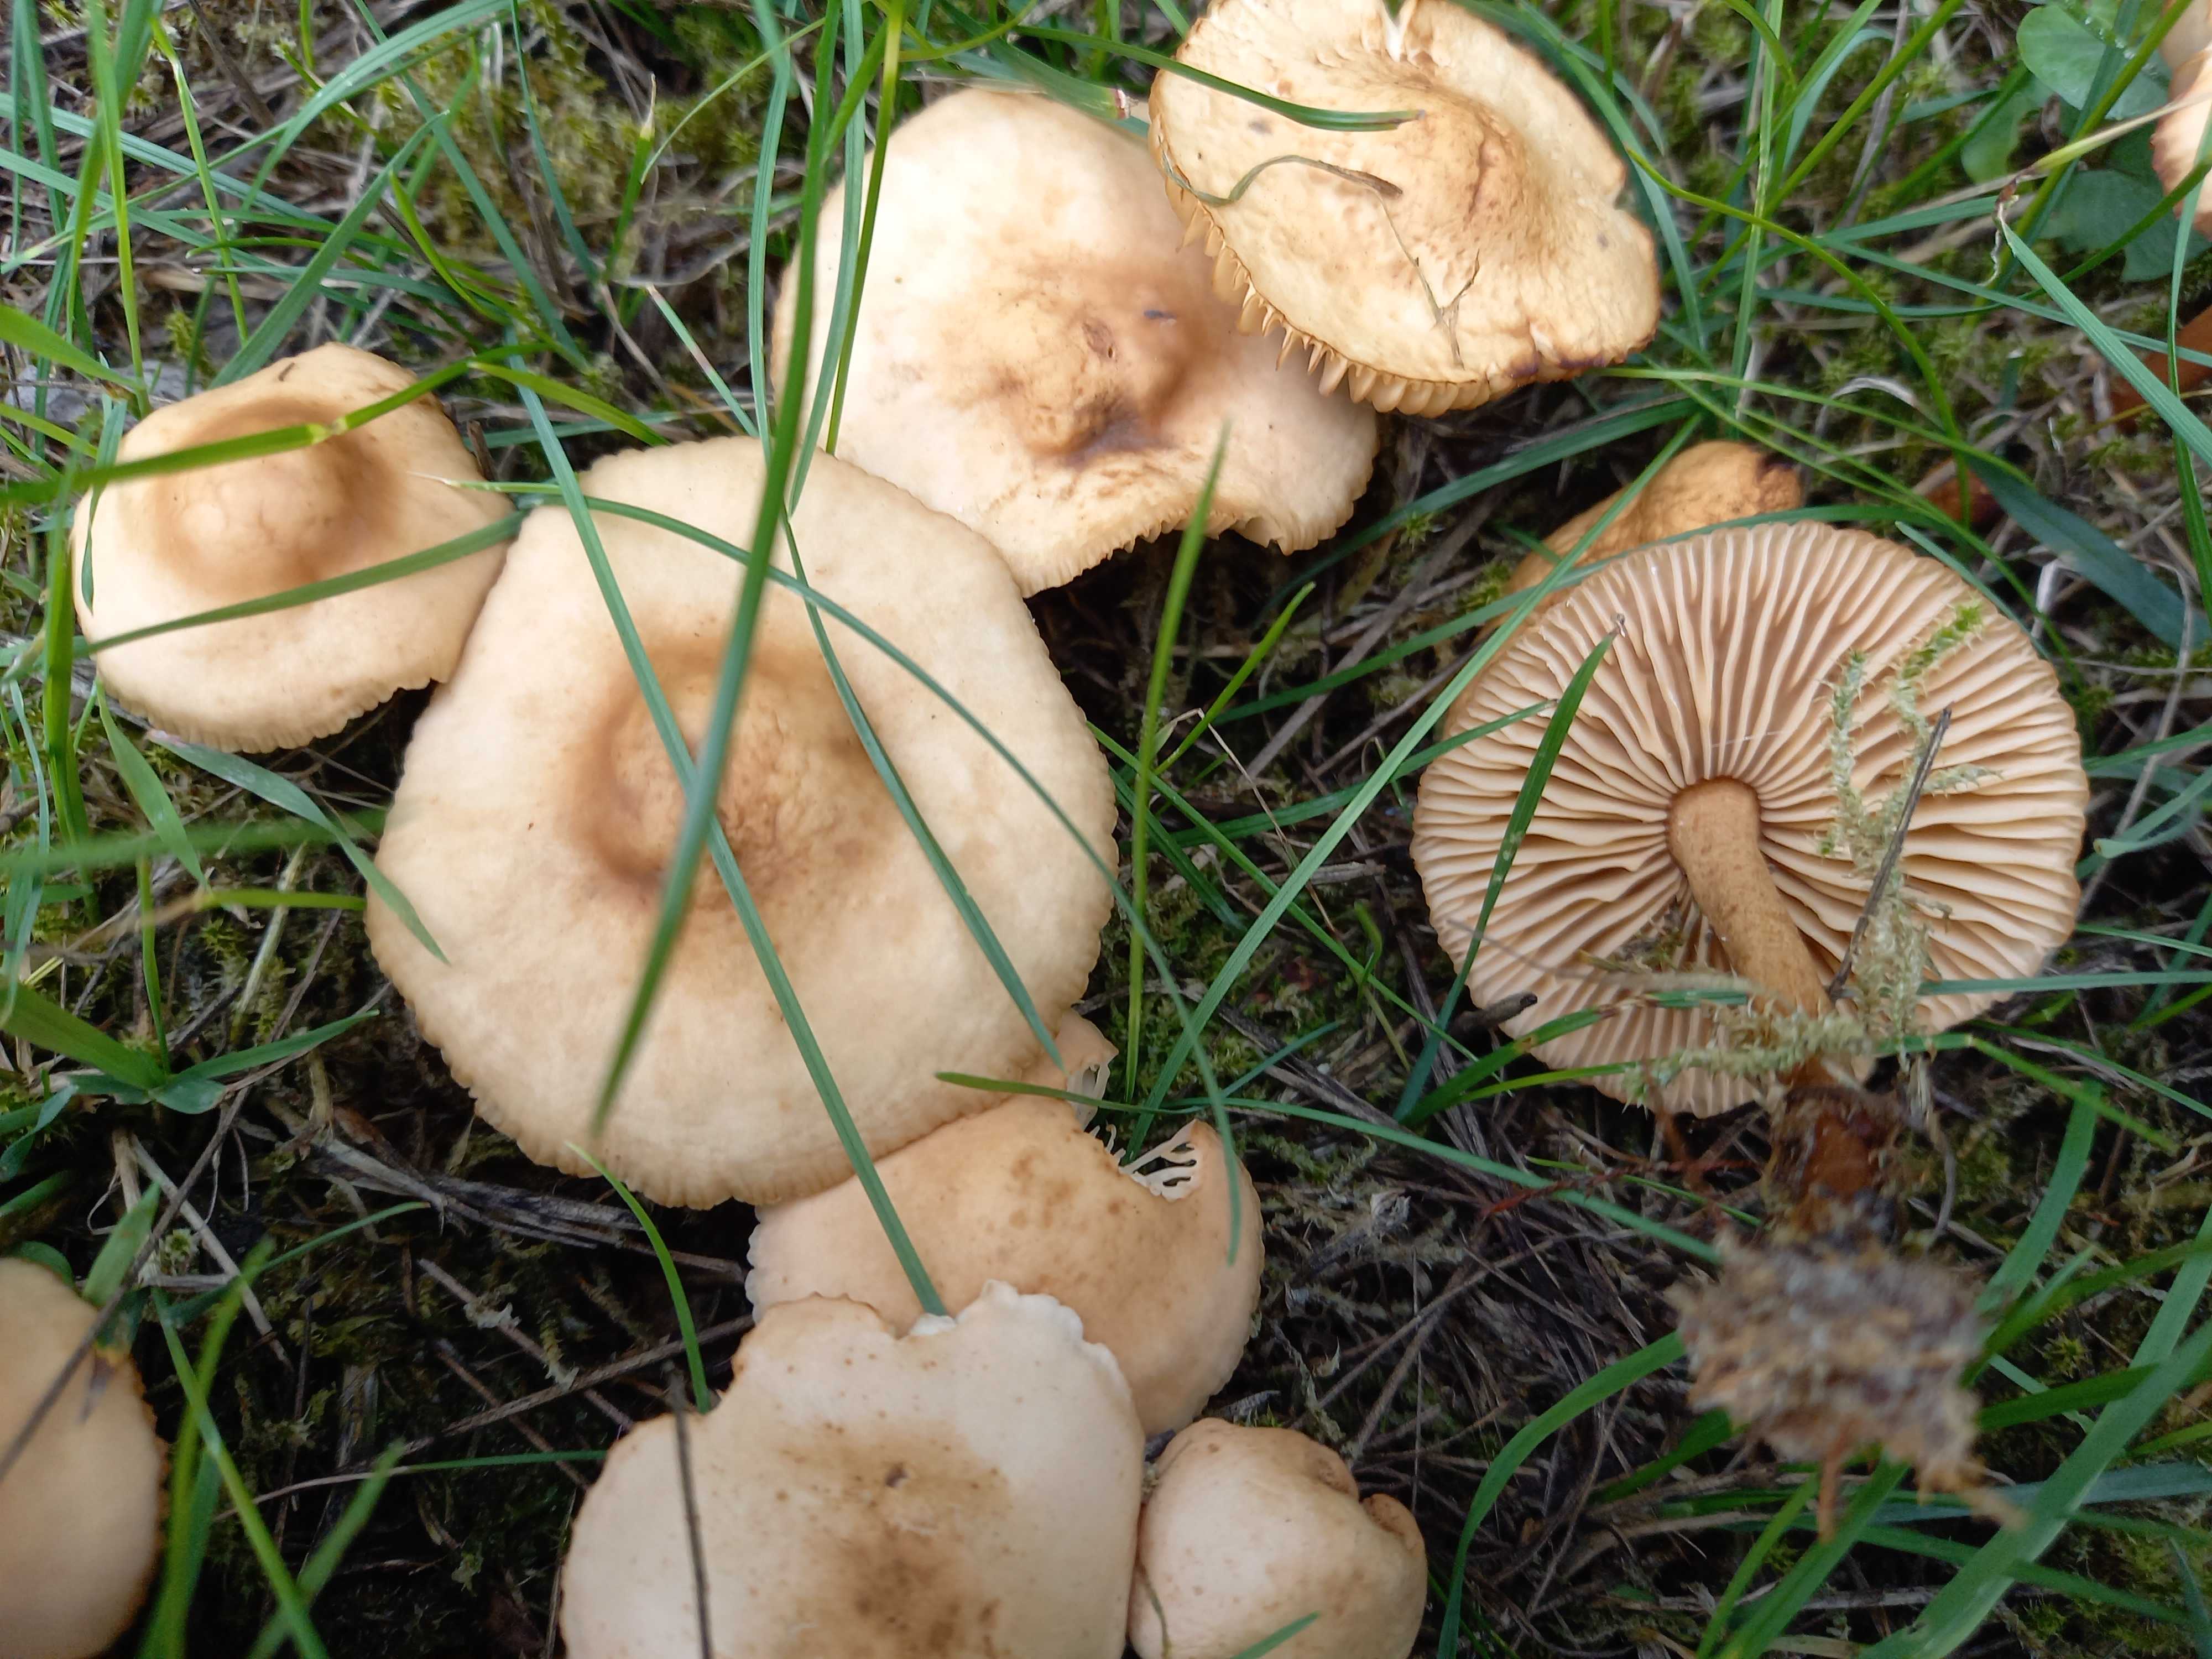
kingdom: Fungi
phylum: Basidiomycota
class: Agaricomycetes
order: Agaricales
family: Marasmiaceae
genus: Marasmius
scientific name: Marasmius oreades
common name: elledans-bruskhat
